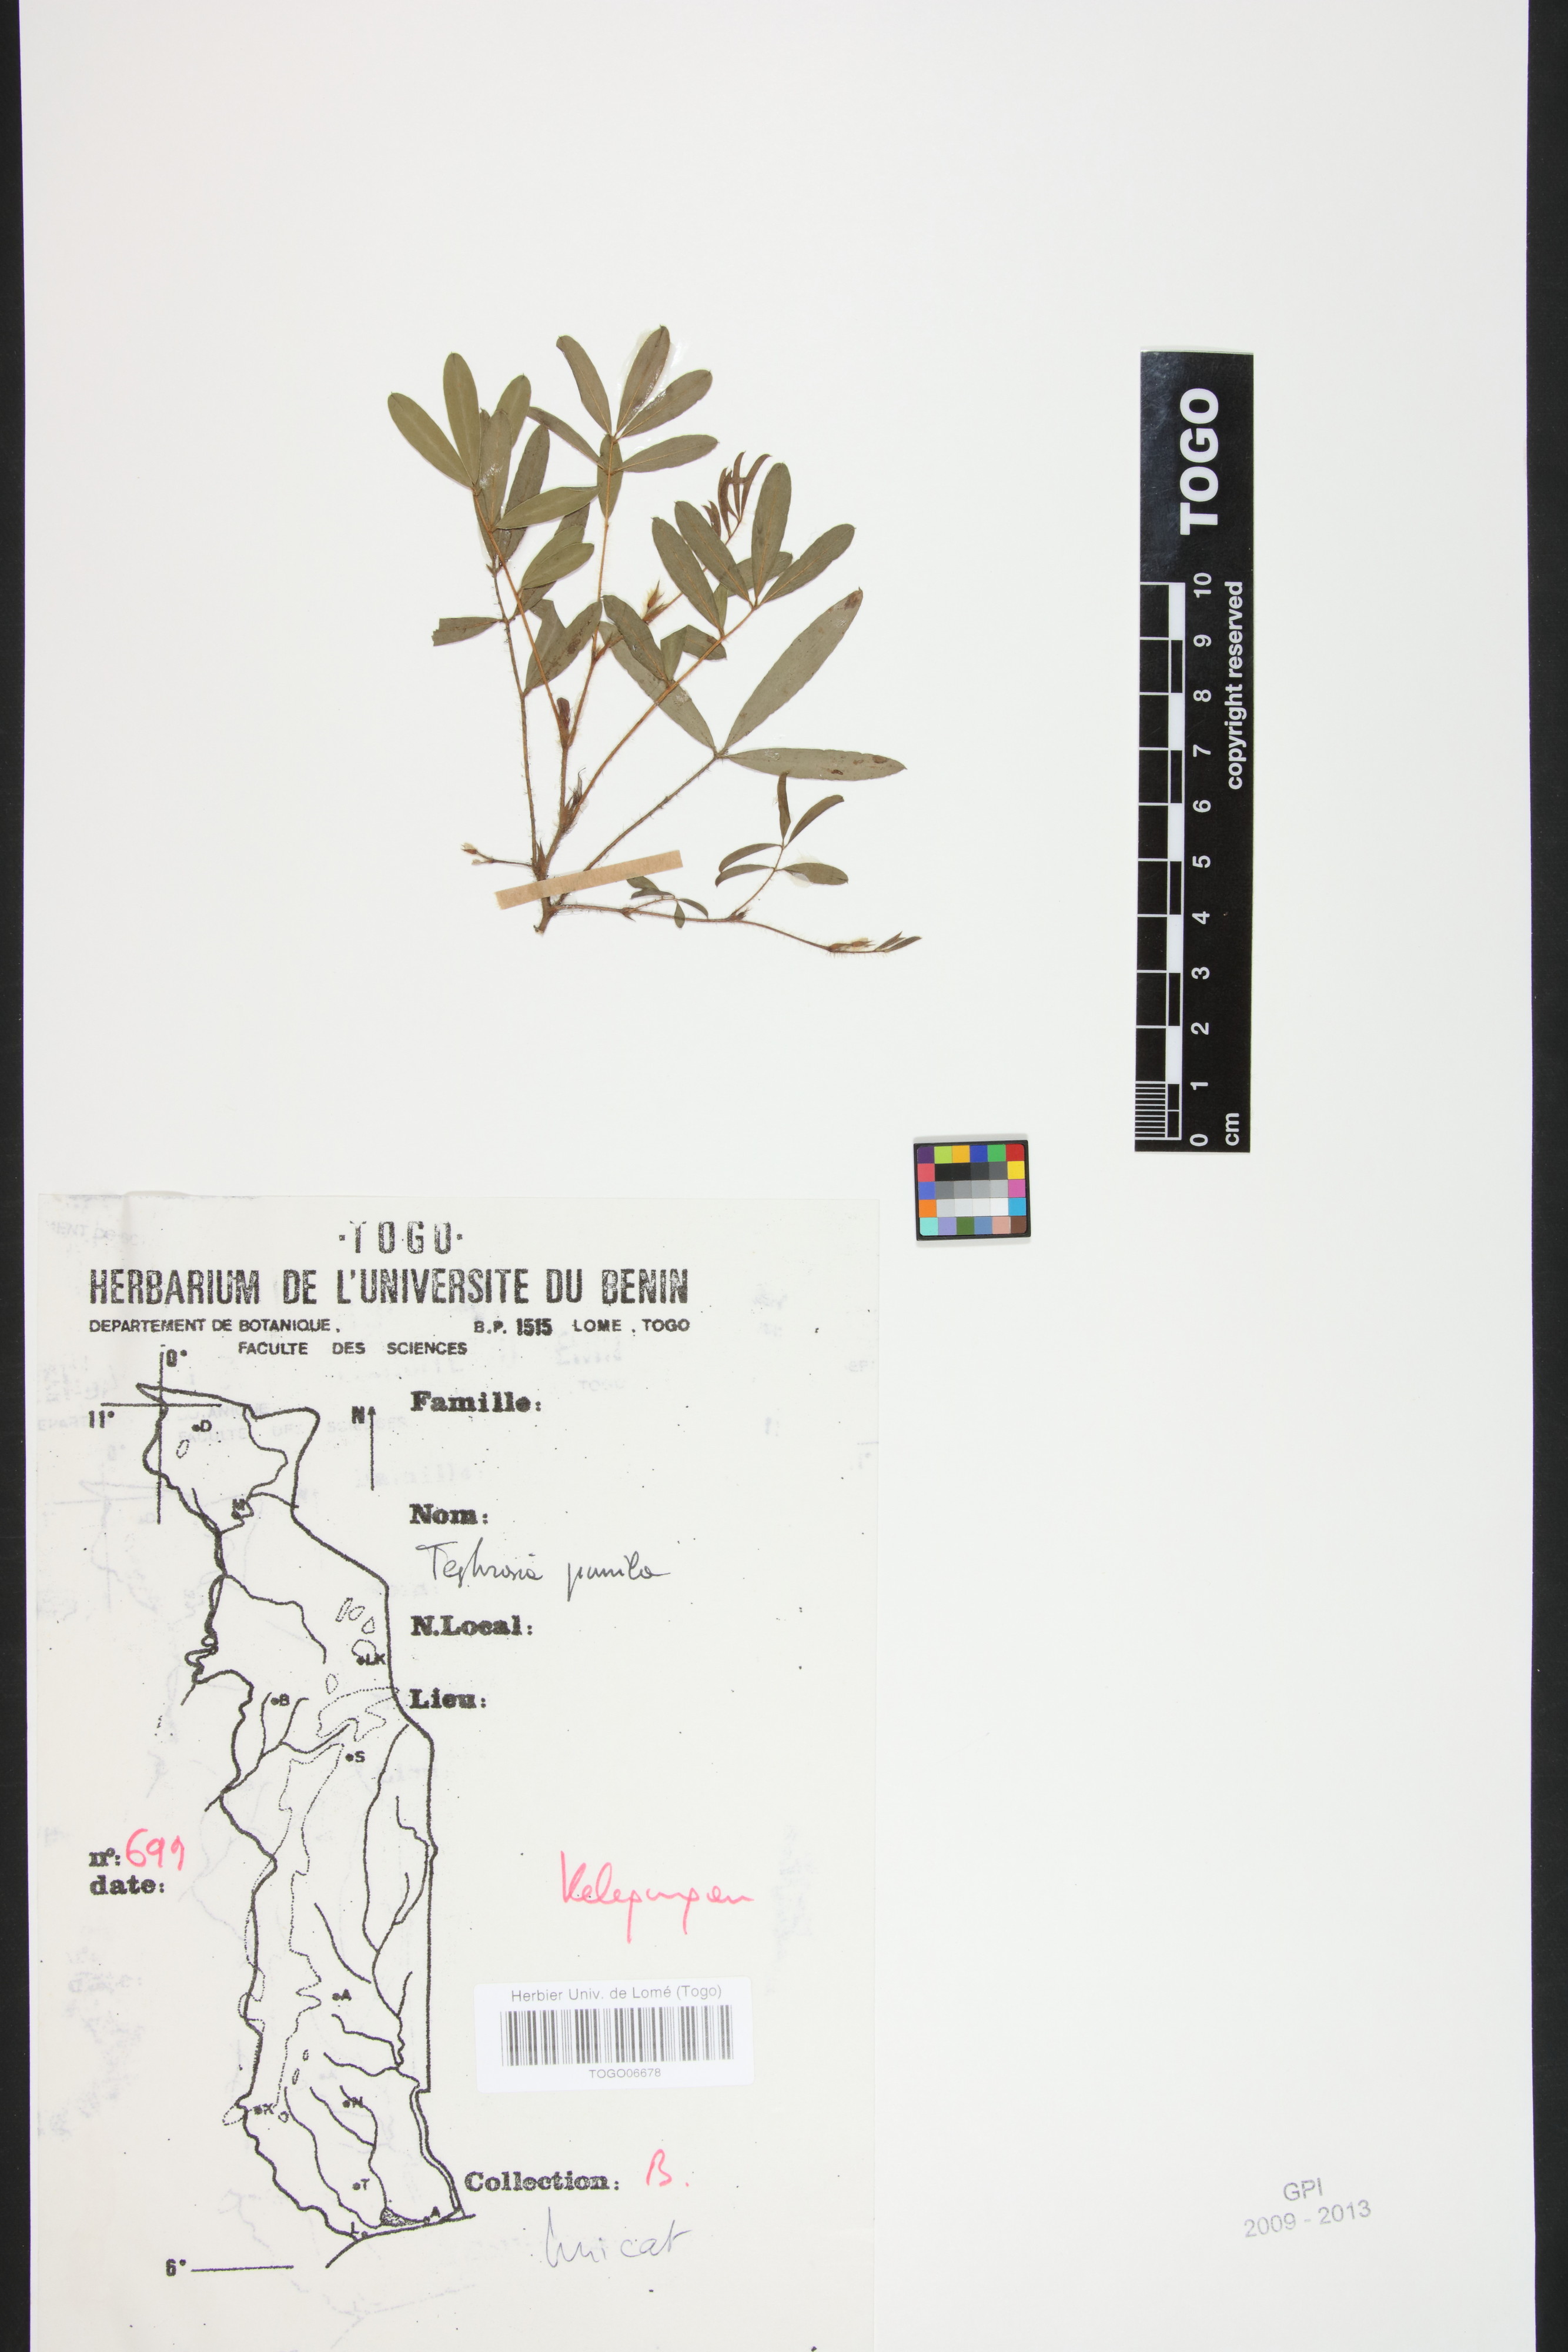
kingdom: Plantae
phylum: Tracheophyta
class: Magnoliopsida
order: Fabales
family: Fabaceae
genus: Tephrosia
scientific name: Tephrosia pumila
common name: Indigo sauvage
